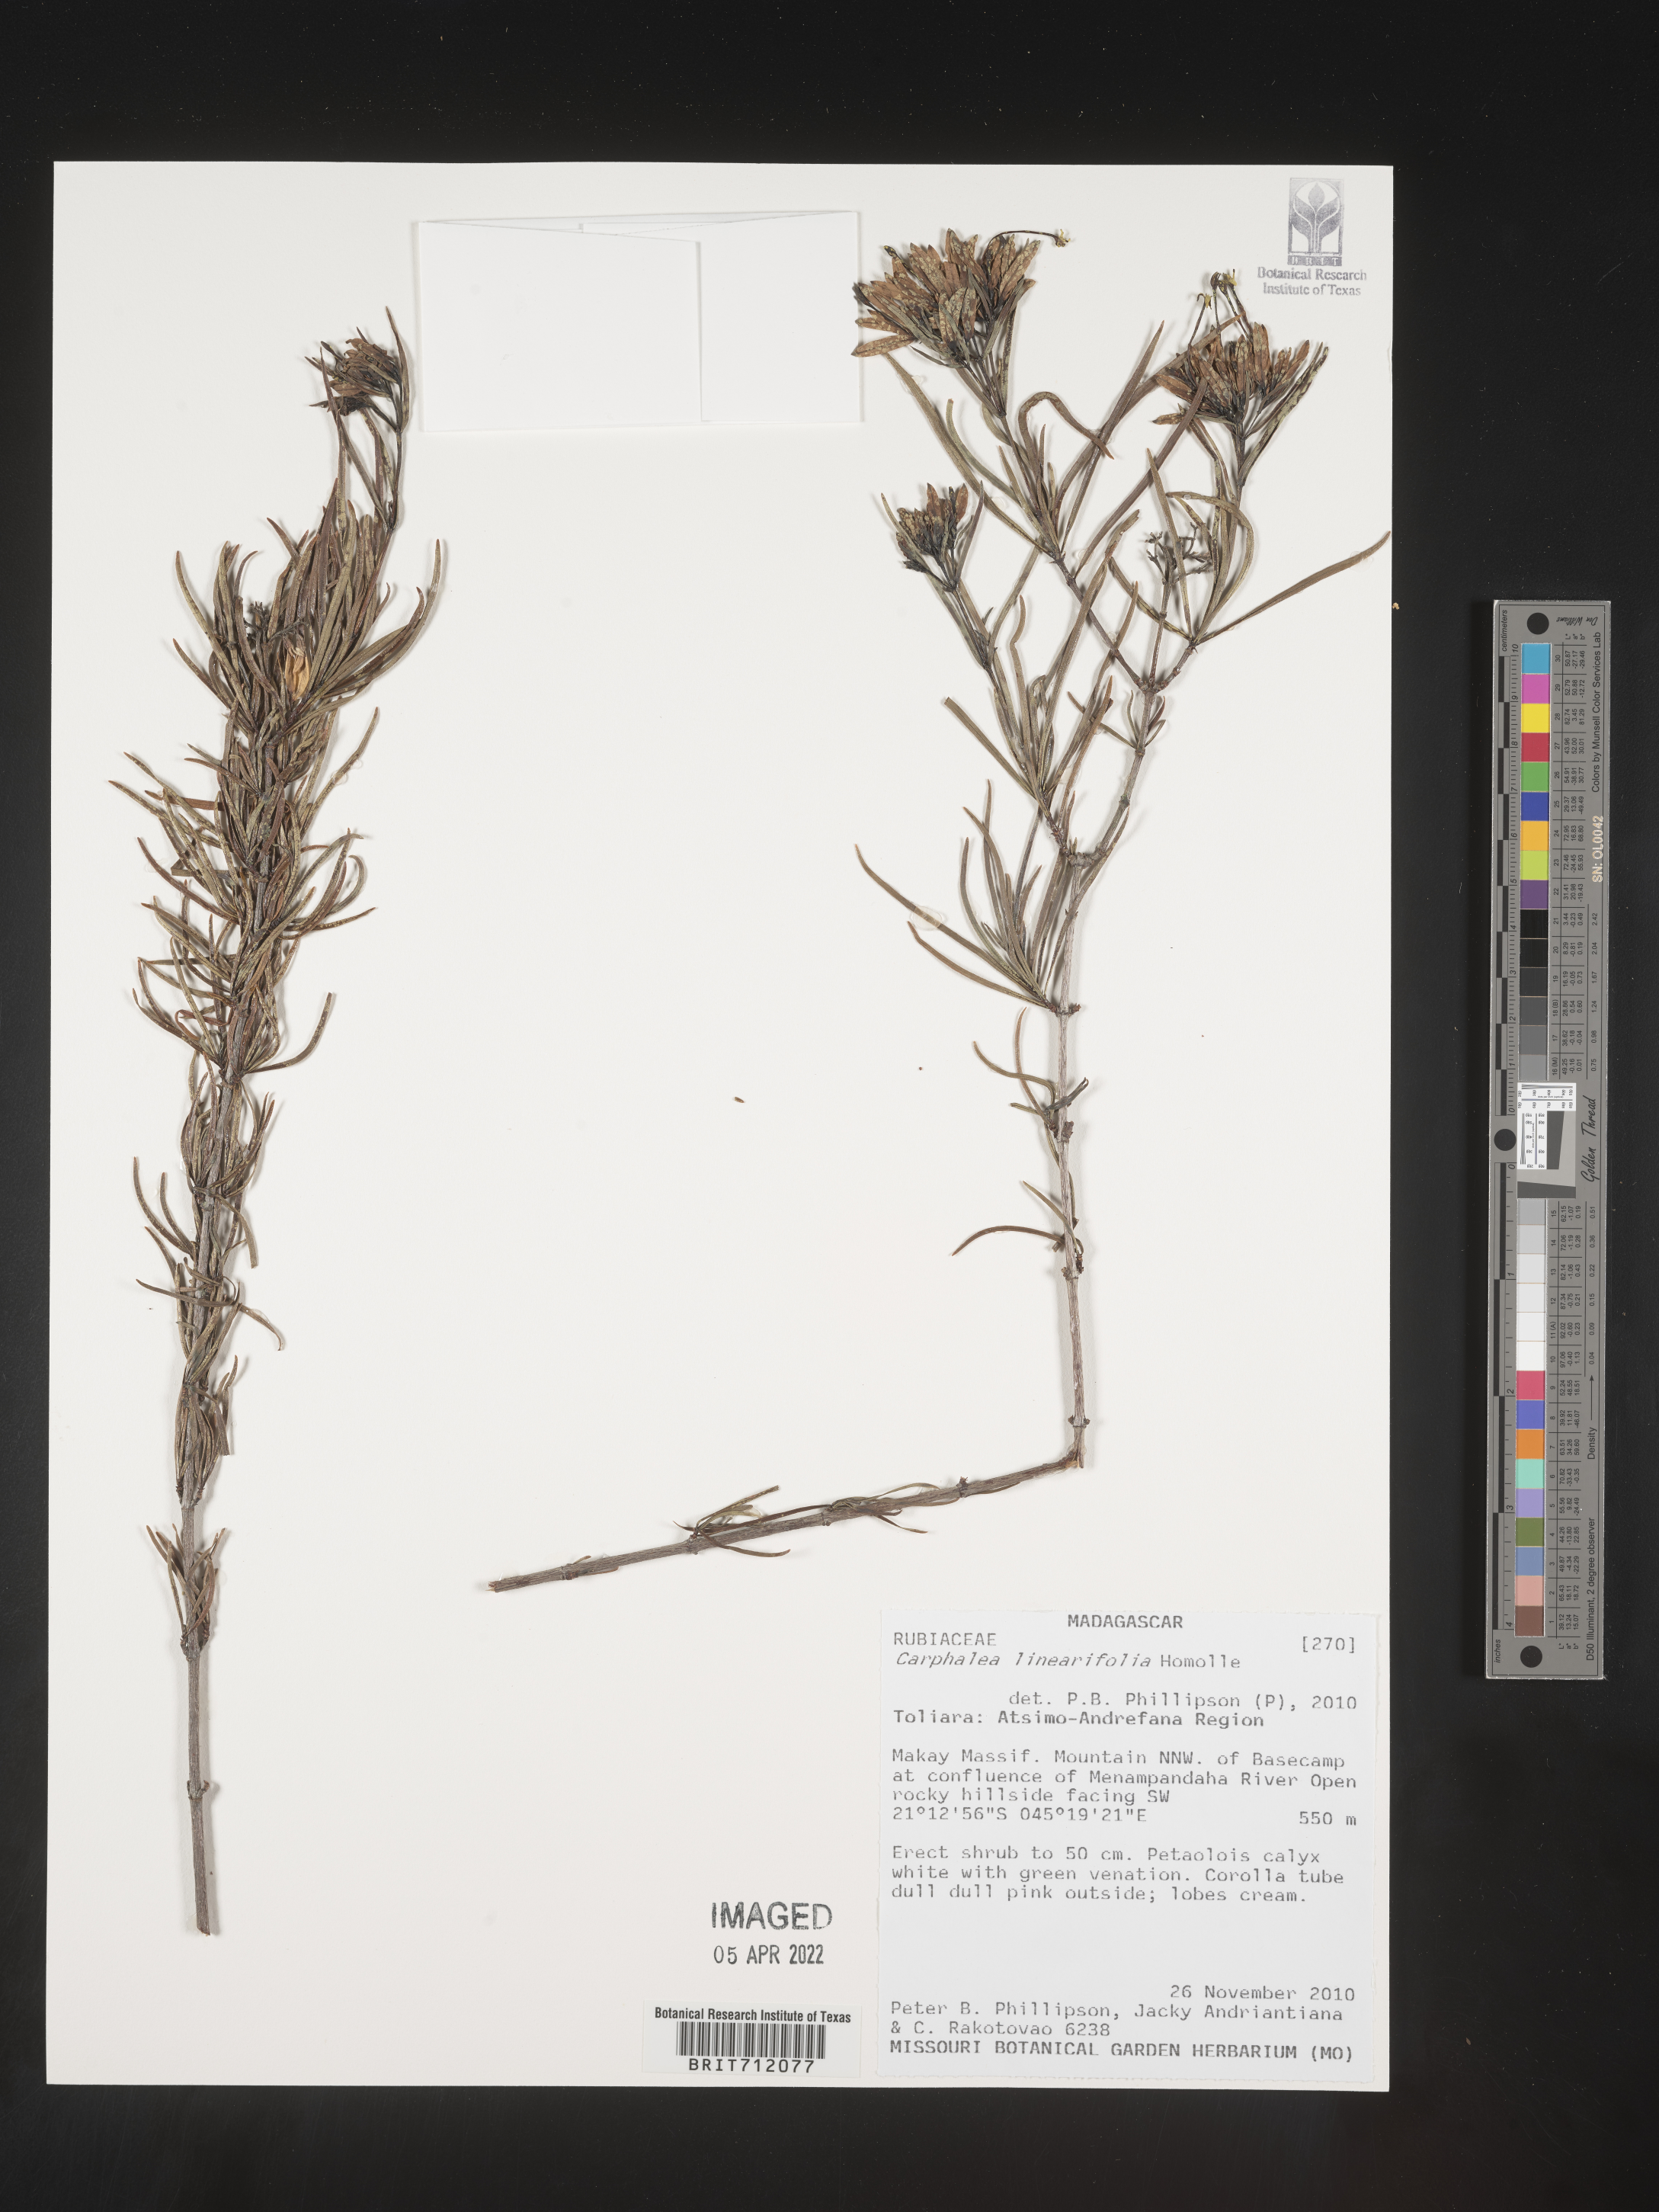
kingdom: Plantae
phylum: Tracheophyta
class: Magnoliopsida
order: Gentianales
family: Rubiaceae
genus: Carphalea
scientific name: Carphalea
